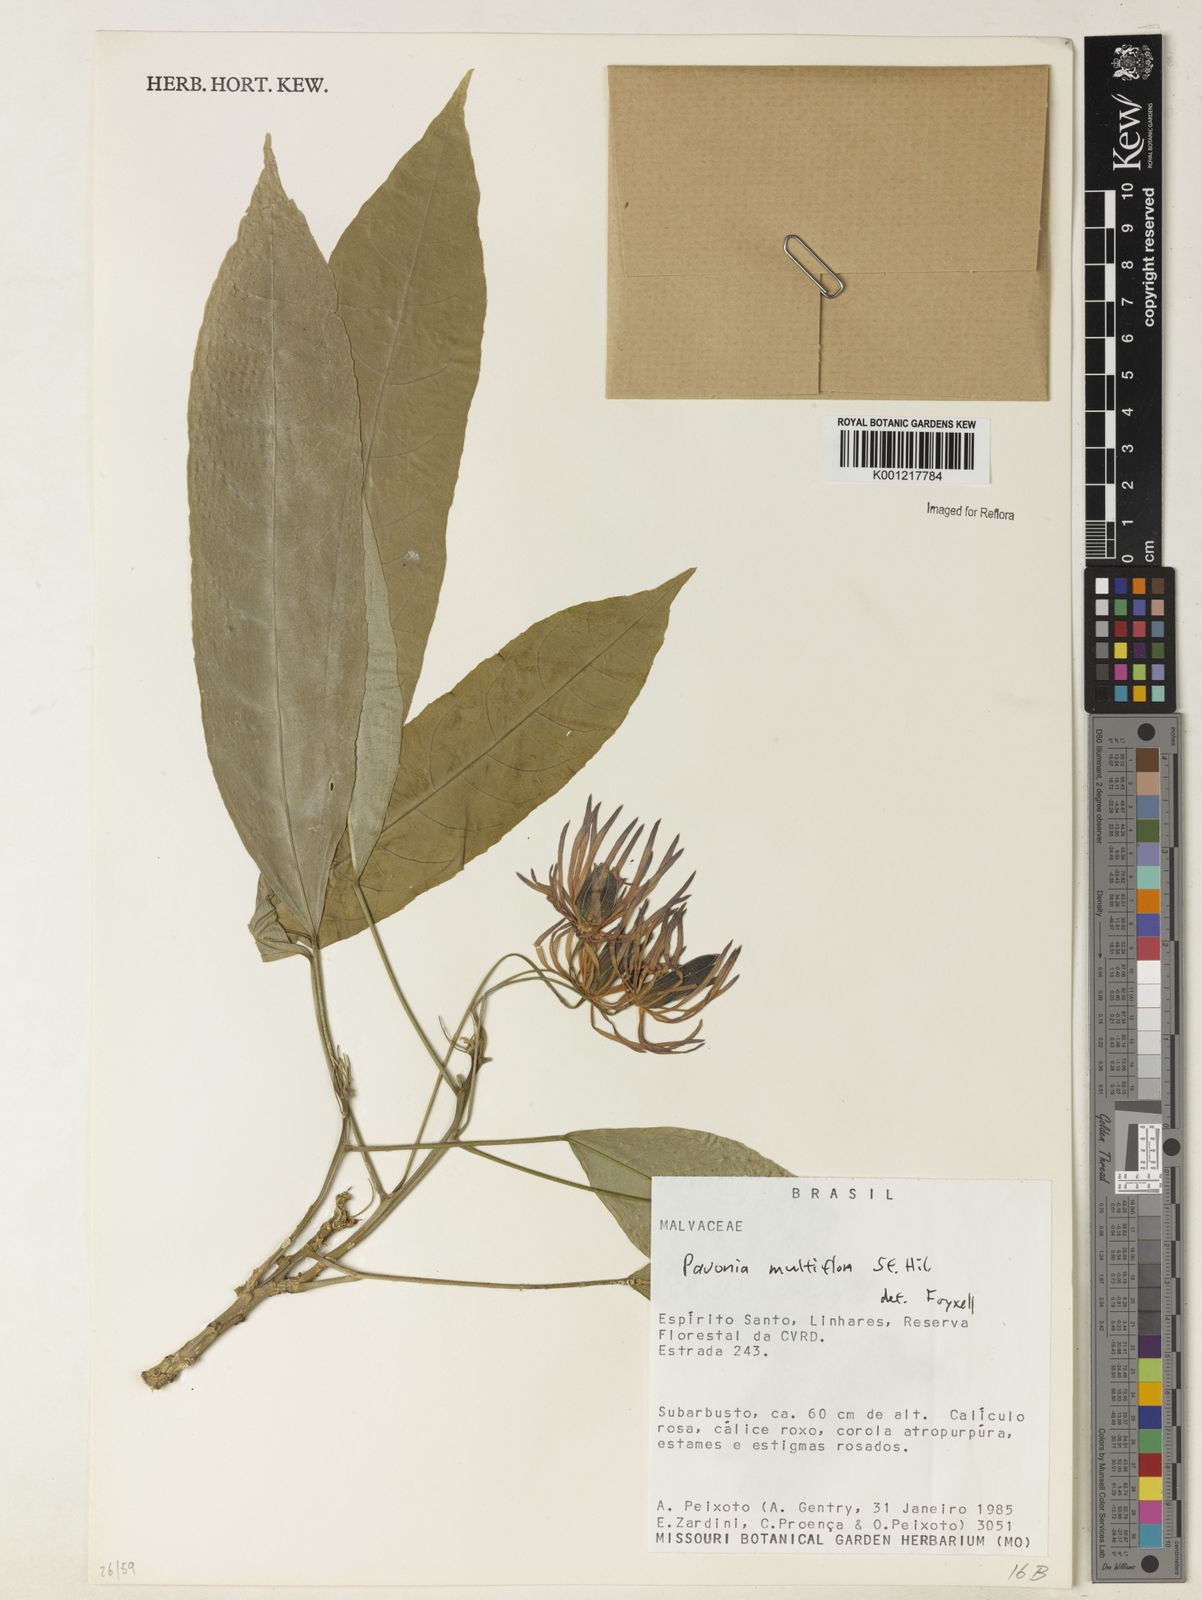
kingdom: Plantae
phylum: Tracheophyta
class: Magnoliopsida
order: Malvales
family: Malvaceae
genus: Pavonia
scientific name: Pavonia multiflora
